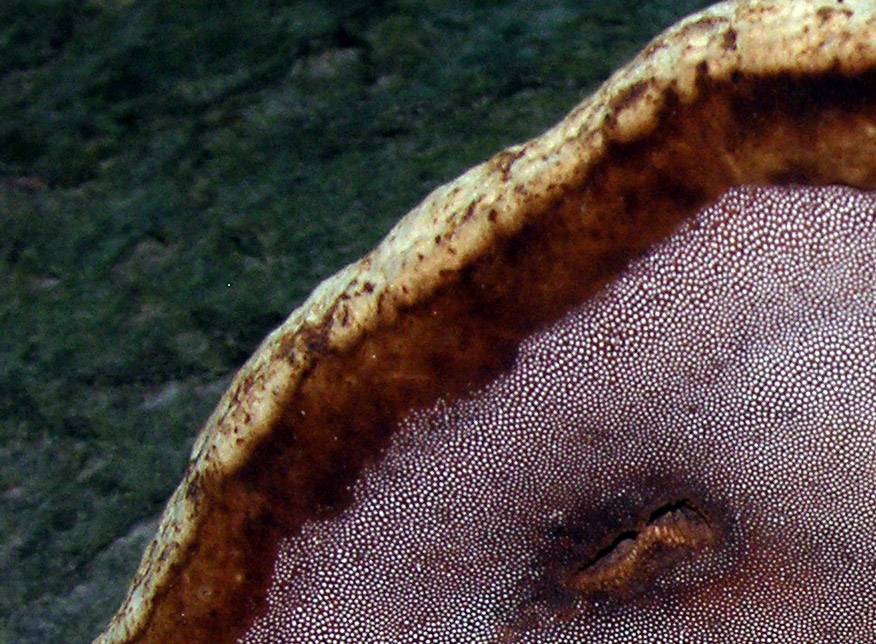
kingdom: Fungi
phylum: Basidiomycota
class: Agaricomycetes
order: Polyporales
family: Polyporaceae
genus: Fomes
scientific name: Fomes fomentarius
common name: tøndersvamp
